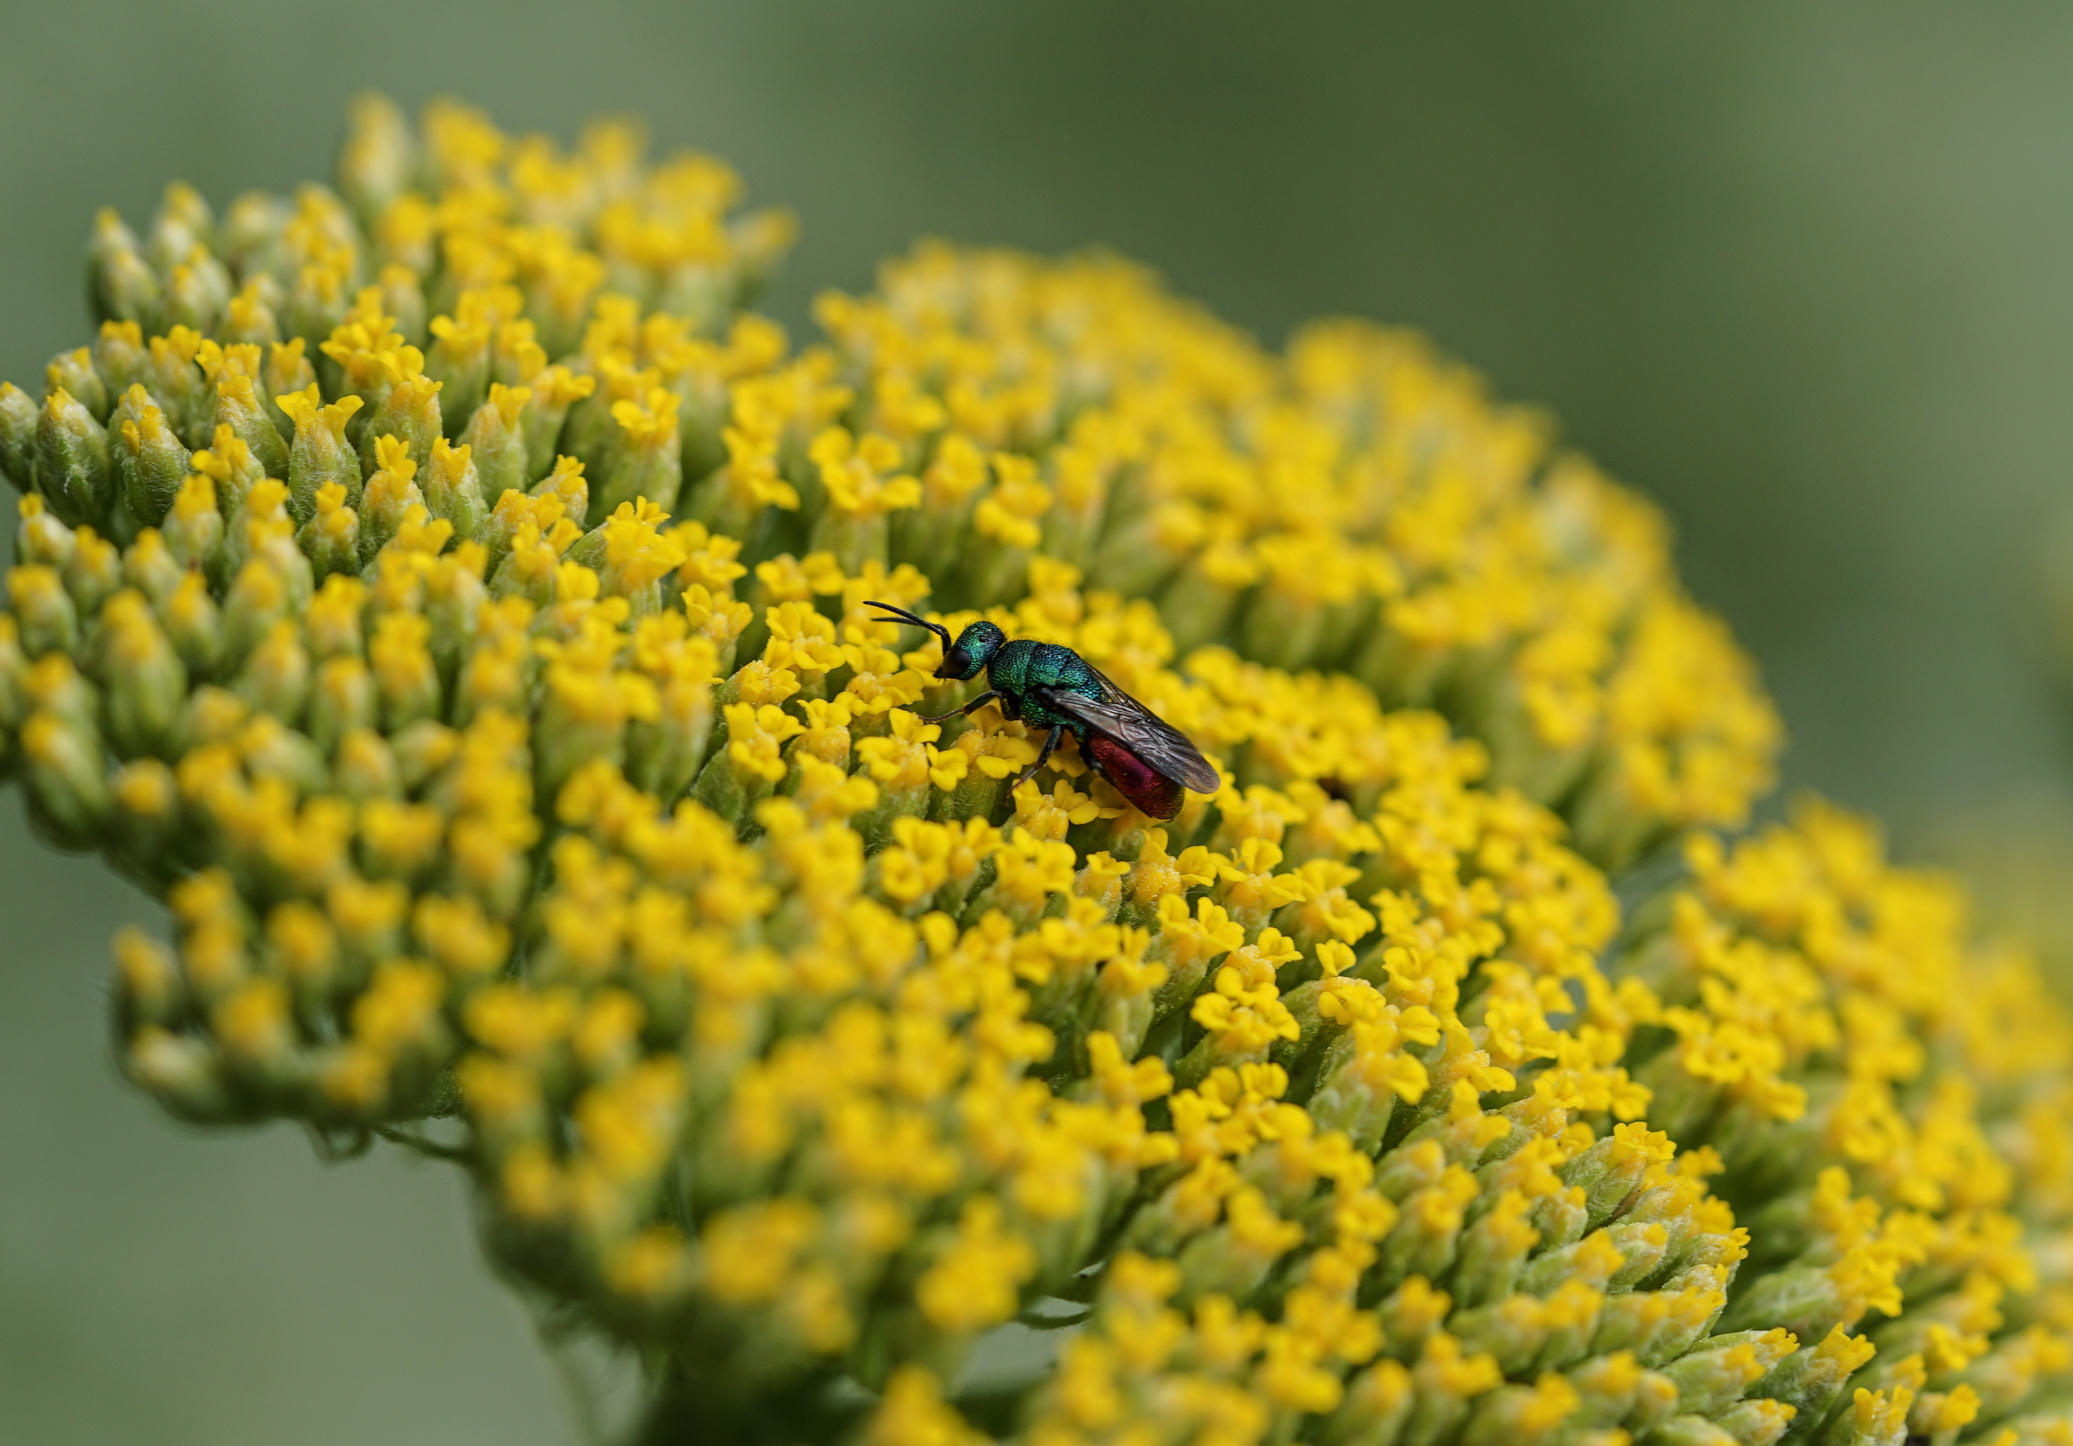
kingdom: Animalia
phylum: Arthropoda
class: Insecta
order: Coleoptera
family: Helophoridae
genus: Helophorus
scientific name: Helophorus Helophorus
